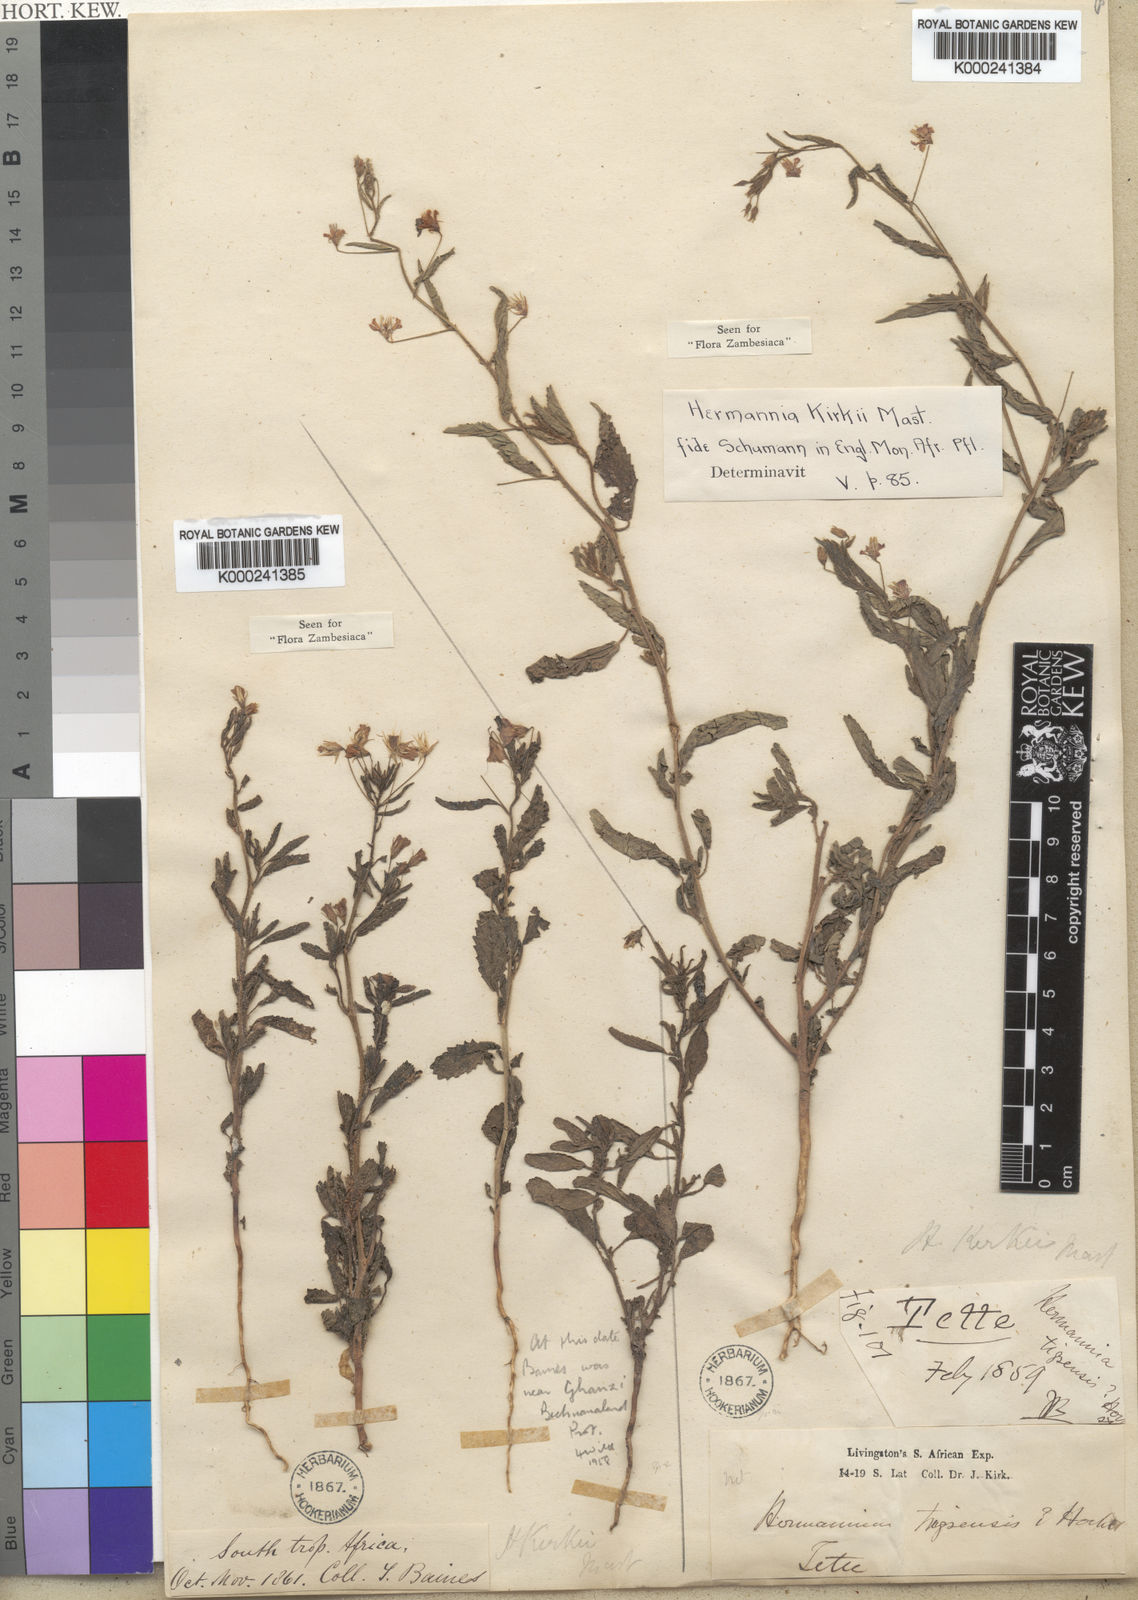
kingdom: Plantae
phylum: Tracheophyta
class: Magnoliopsida
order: Malvales
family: Malvaceae
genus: Hermannia
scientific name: Hermannia modesta
